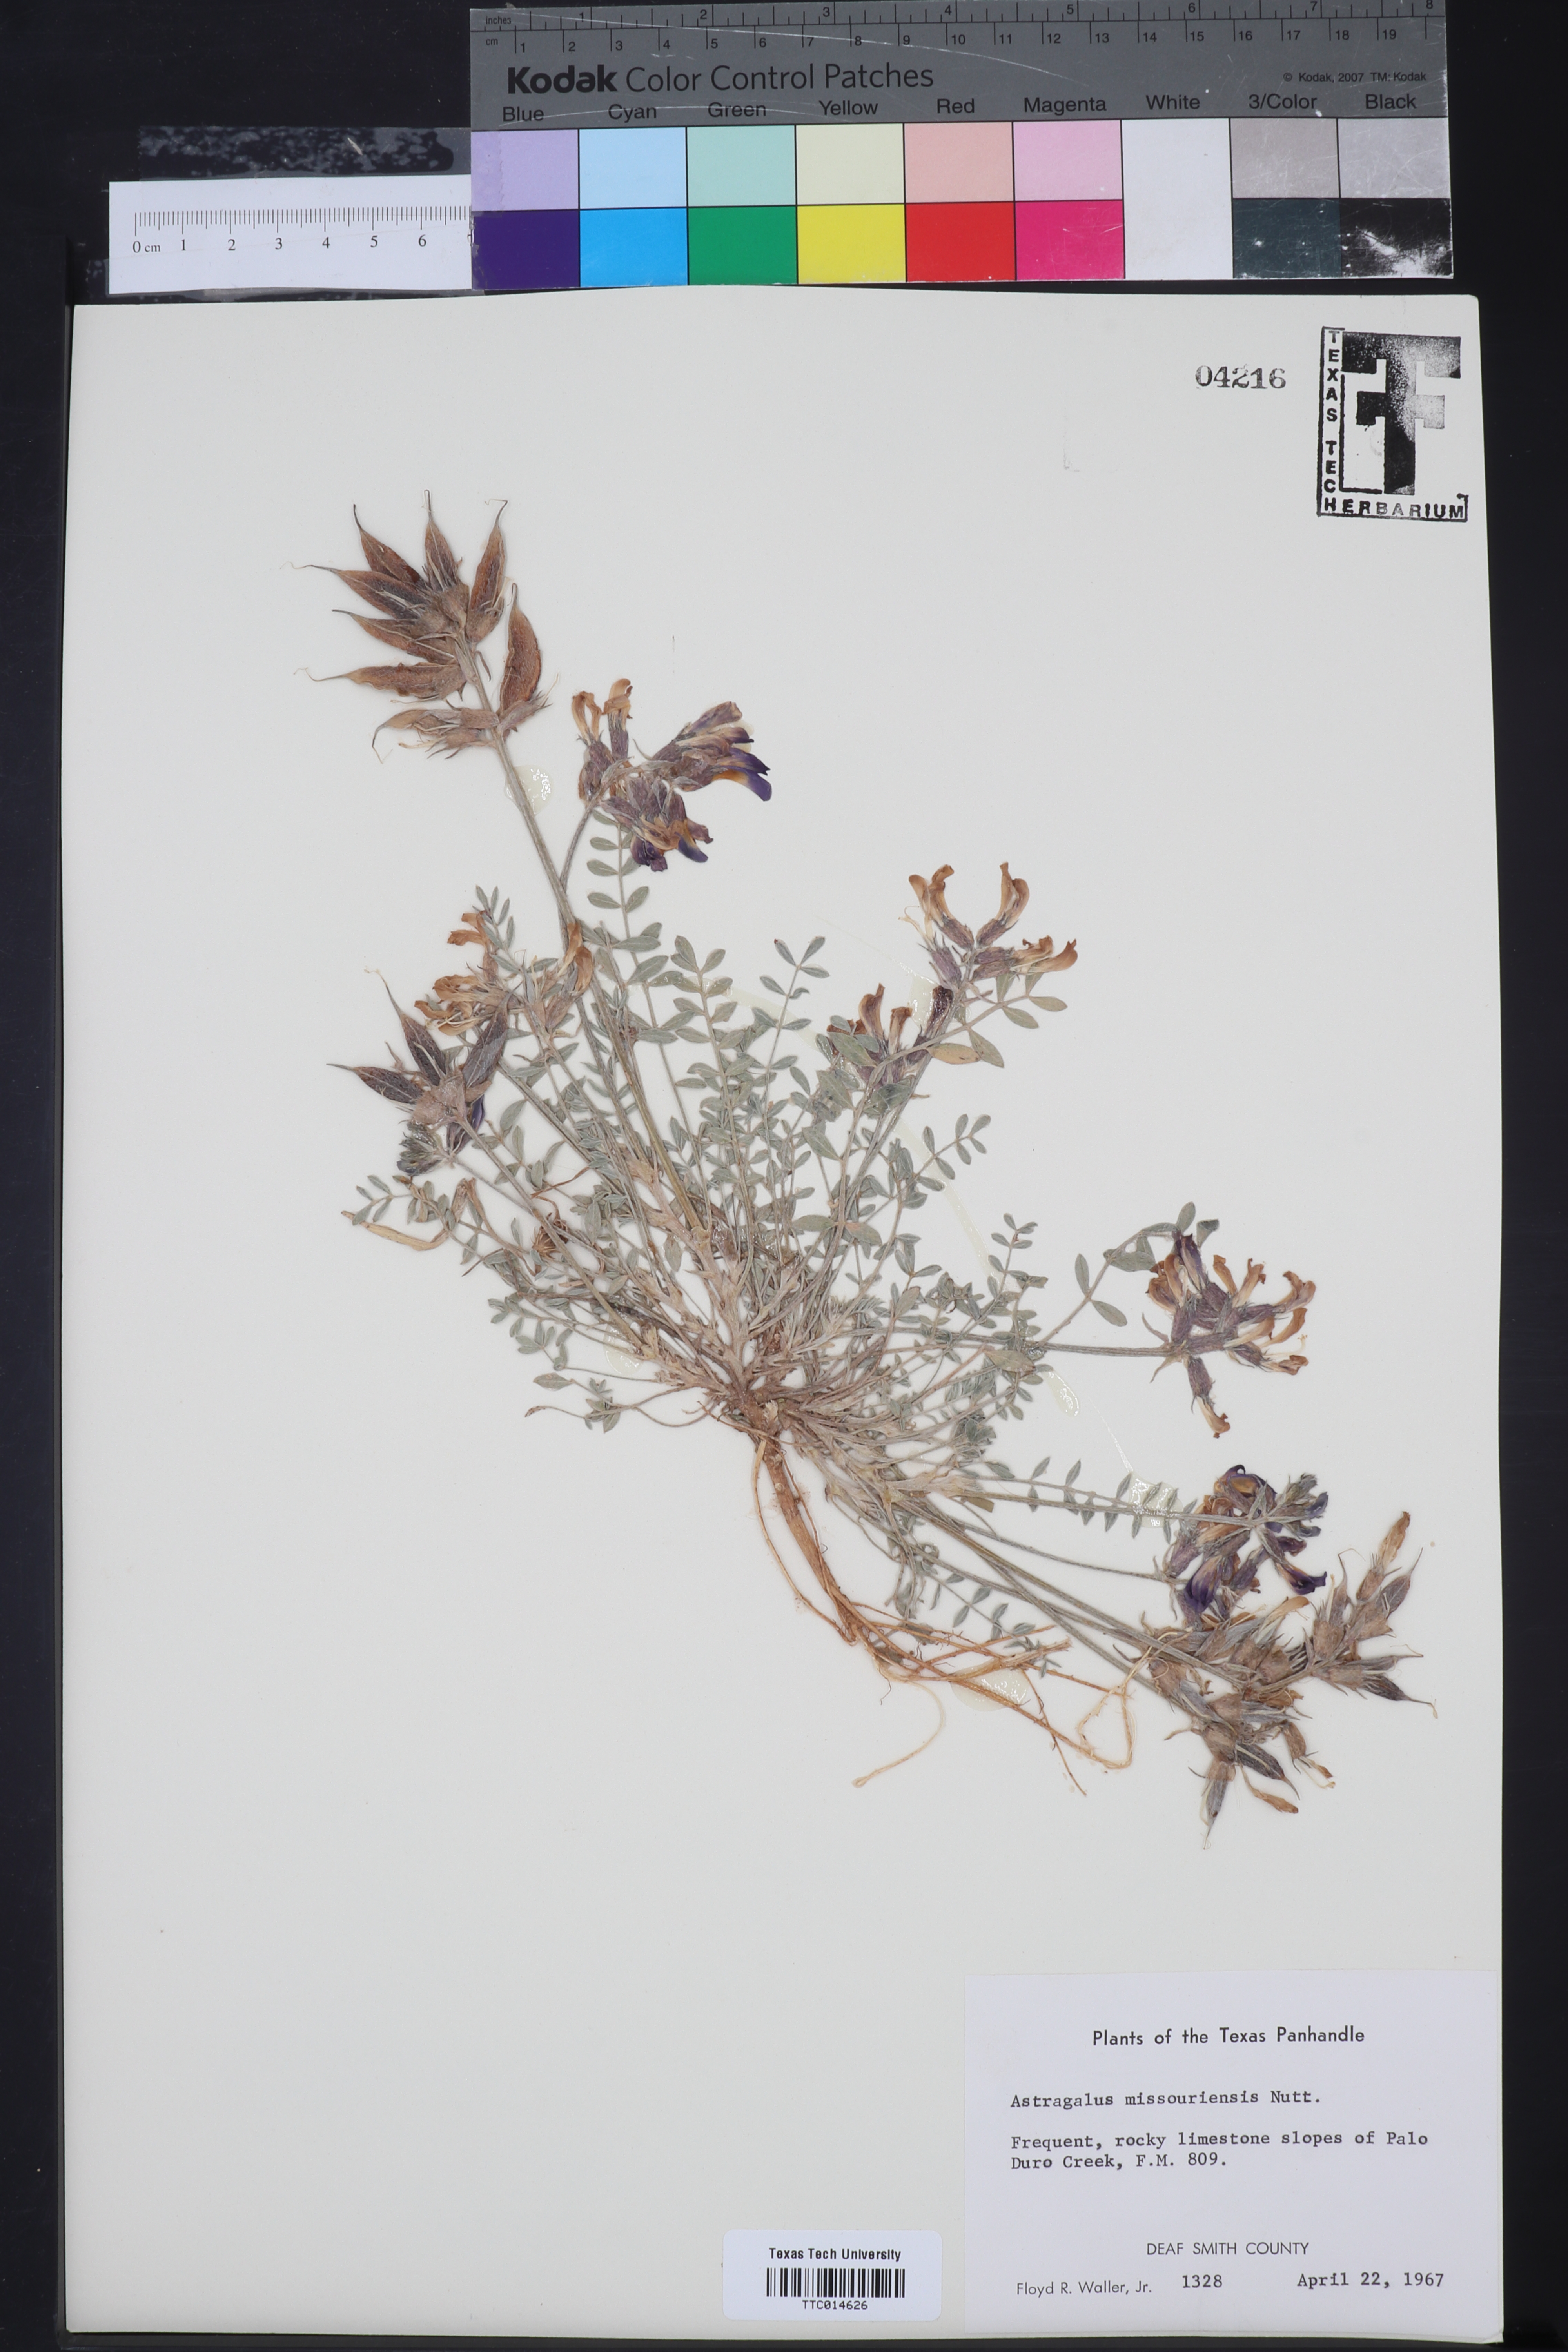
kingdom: Plantae
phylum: Tracheophyta
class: Magnoliopsida
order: Fabales
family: Fabaceae
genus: Astragalus
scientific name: Astragalus missouriensis
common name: Missouri milk-vetch
